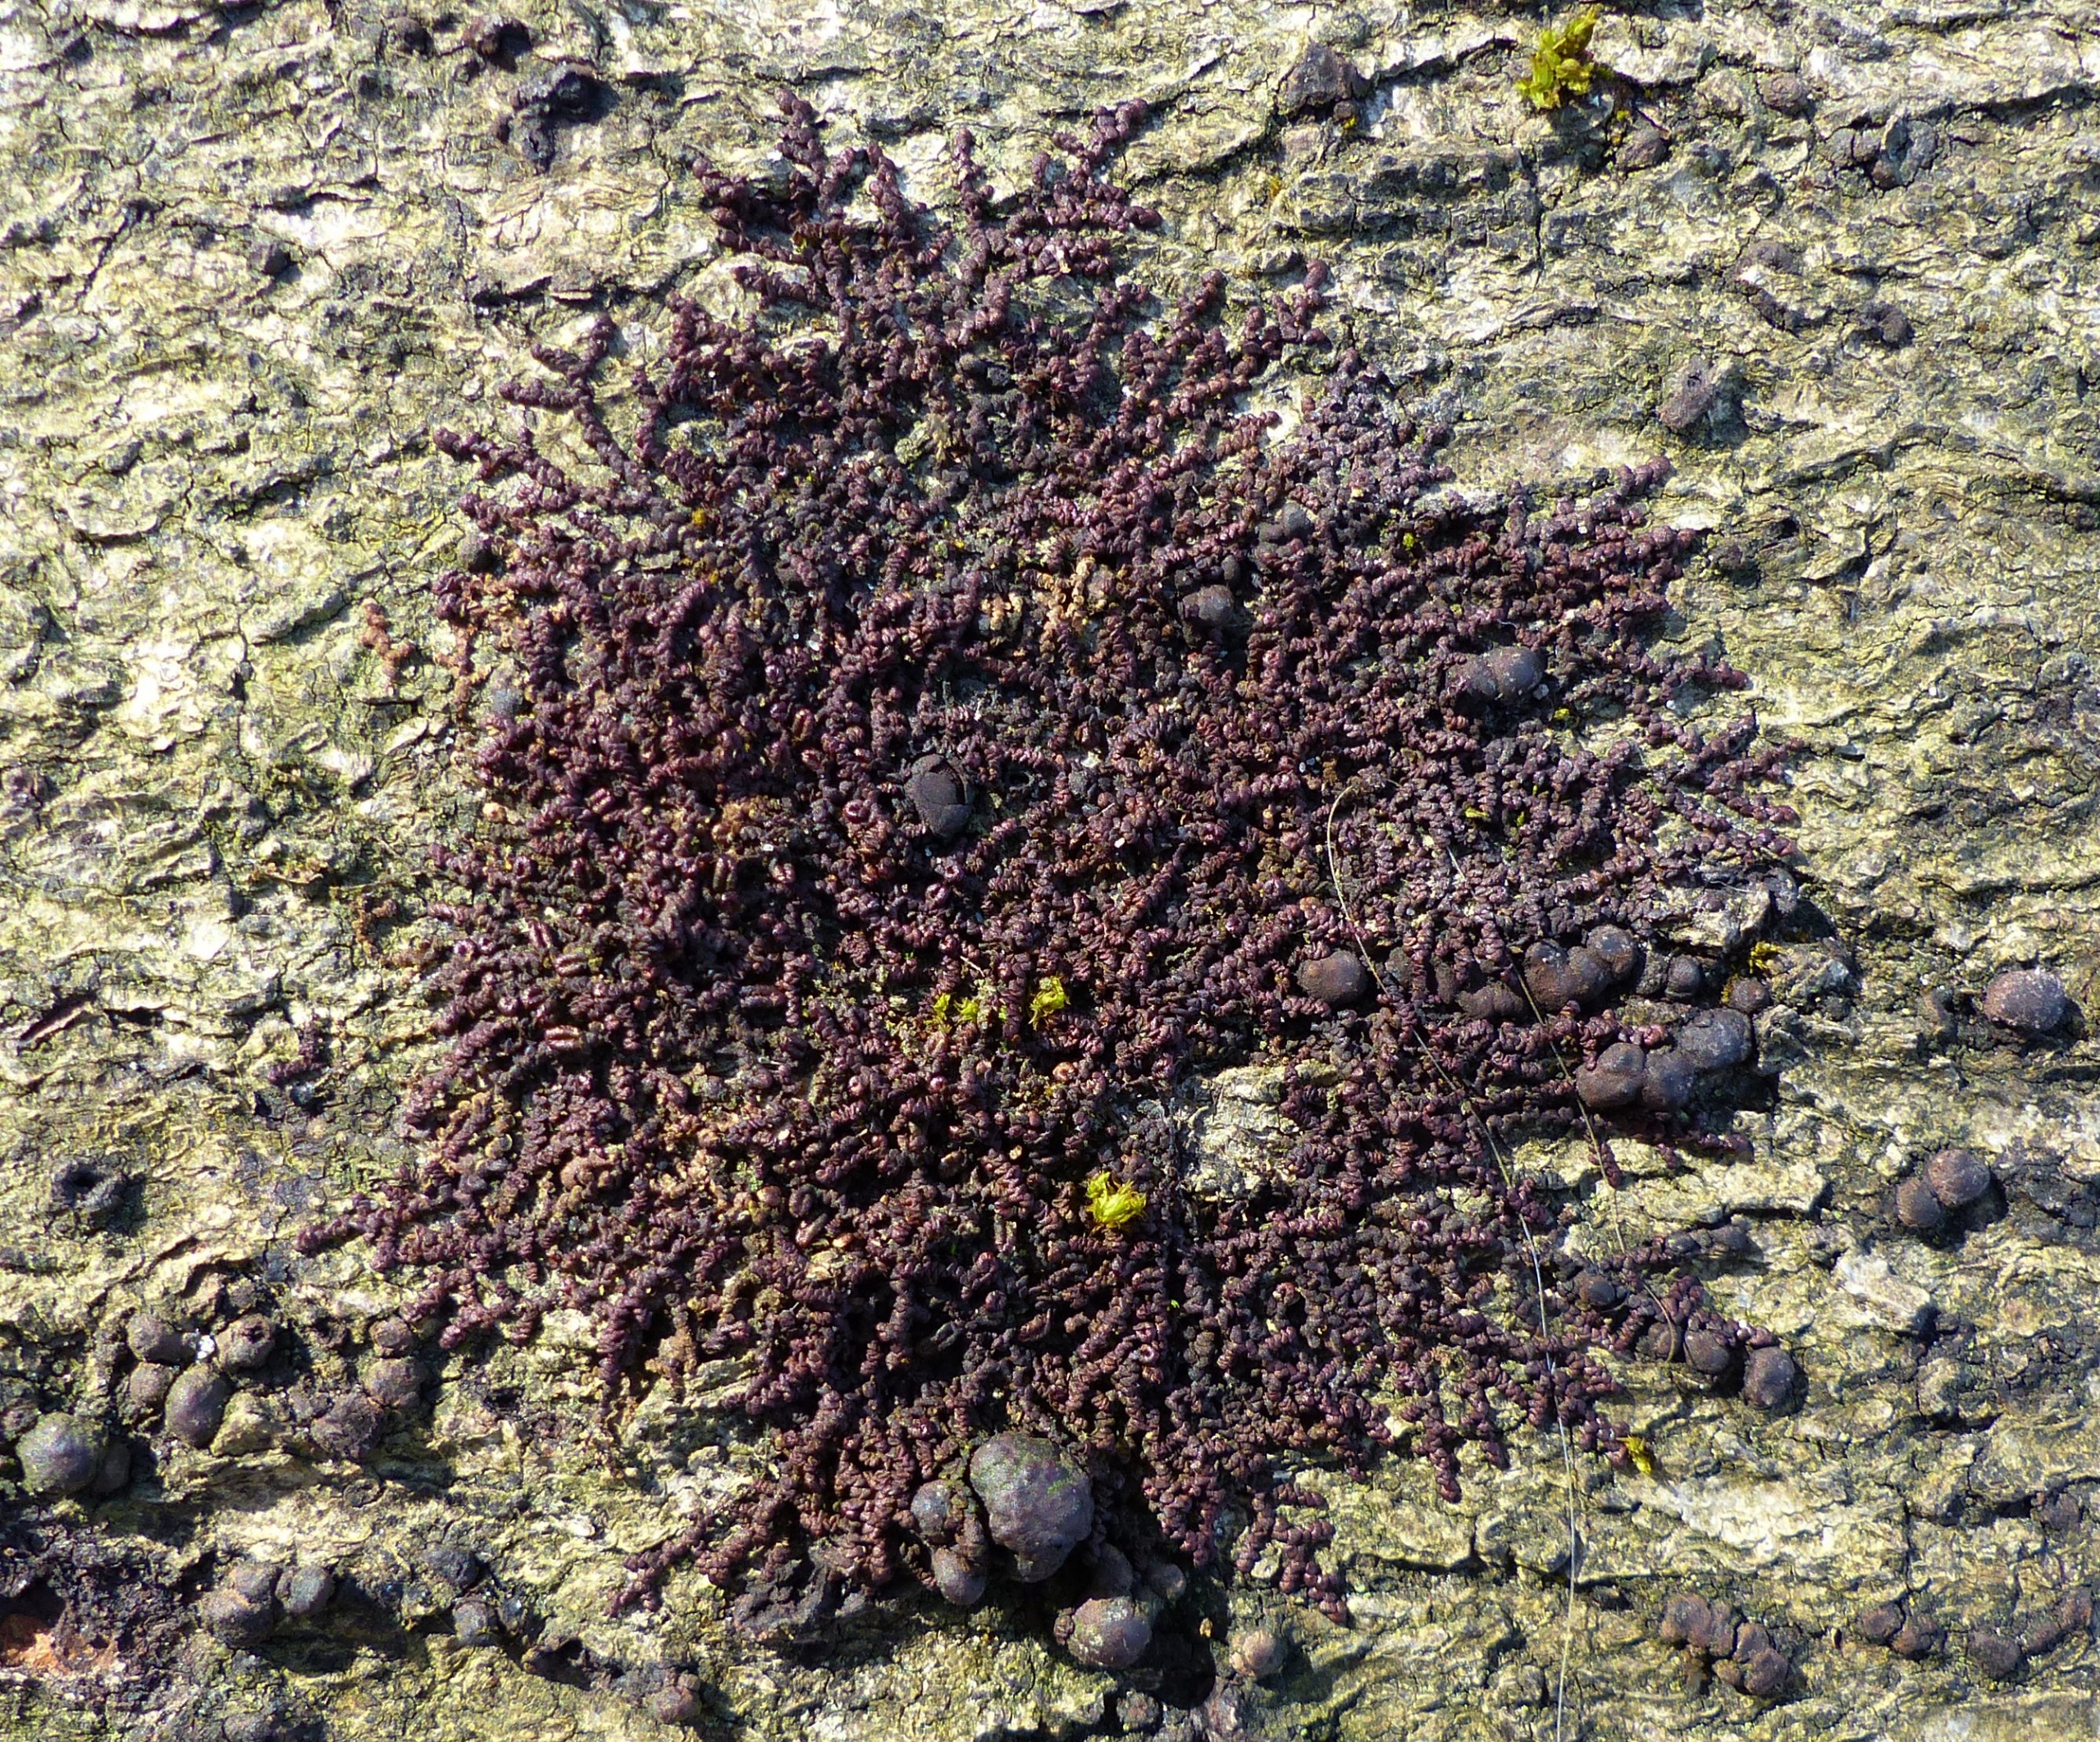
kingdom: Plantae
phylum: Marchantiophyta
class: Jungermanniopsida
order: Porellales
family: Frullaniaceae
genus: Frullania
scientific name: Frullania dilatata
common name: Mat bronzemos
